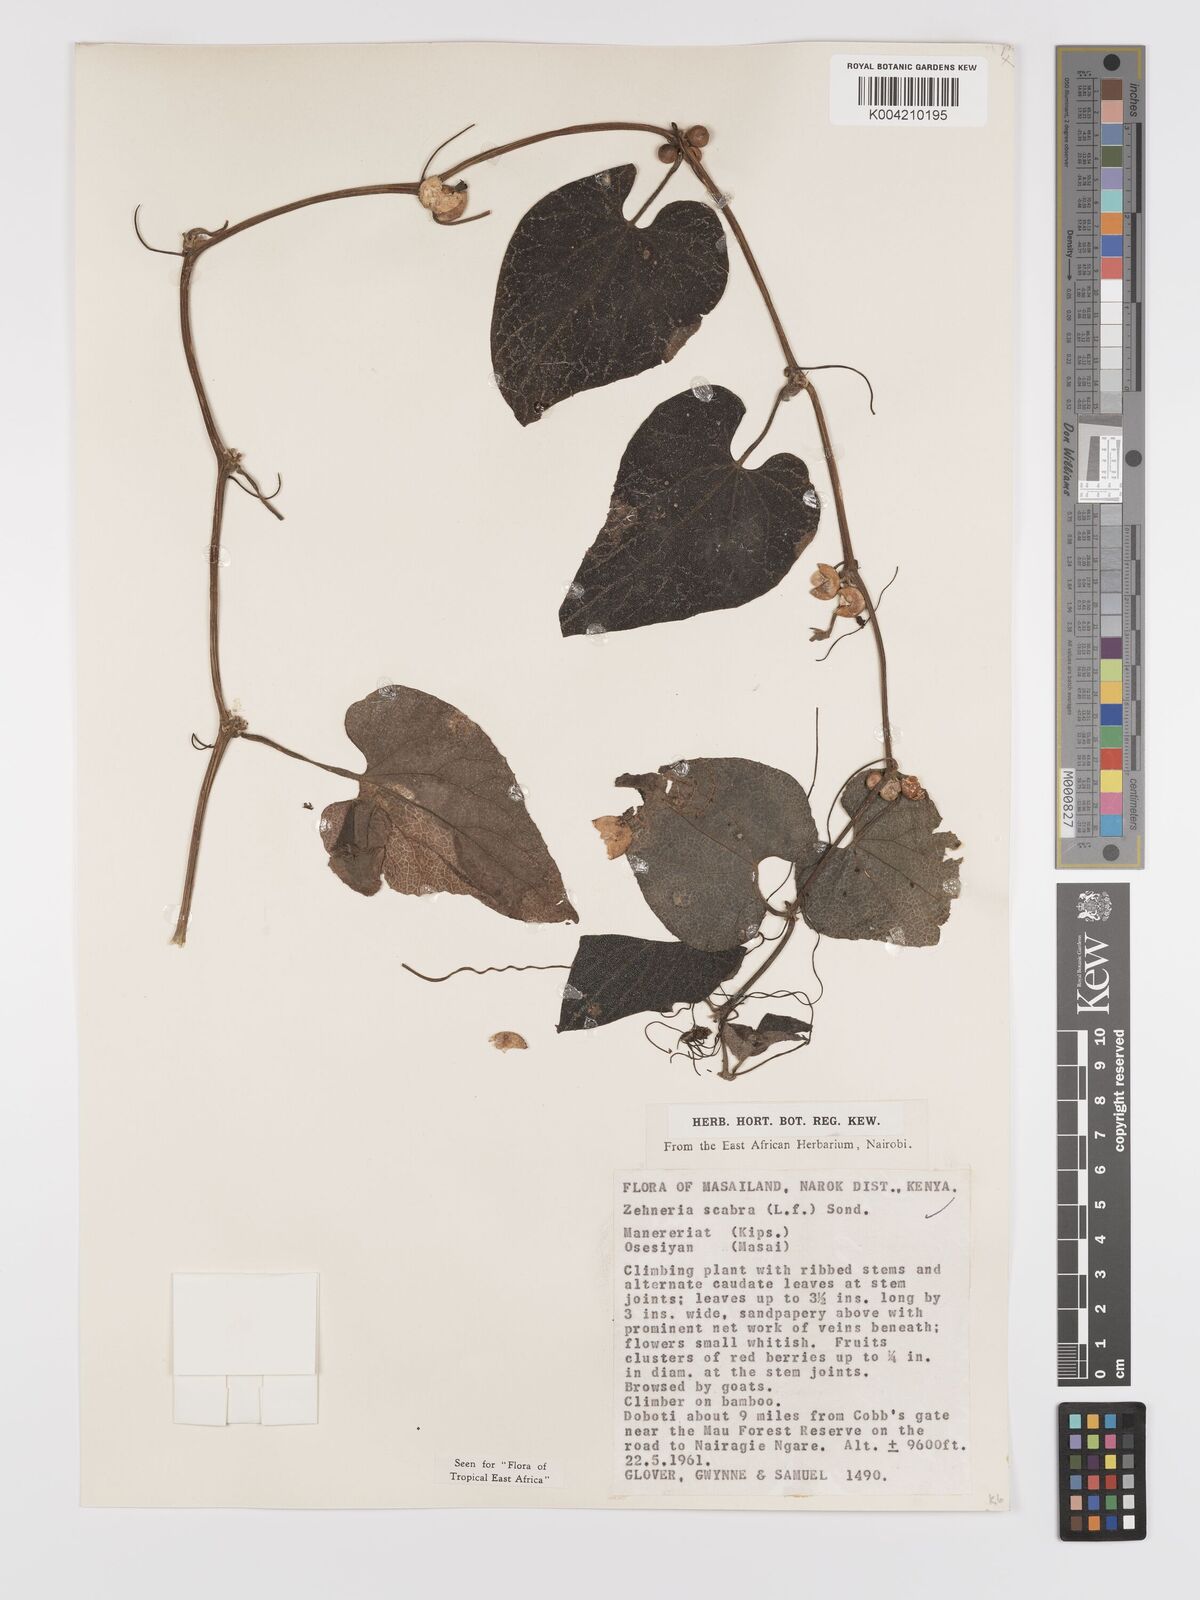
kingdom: Plantae
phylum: Tracheophyta
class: Magnoliopsida
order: Cucurbitales
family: Cucurbitaceae
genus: Zehneria
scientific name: Zehneria scabra
